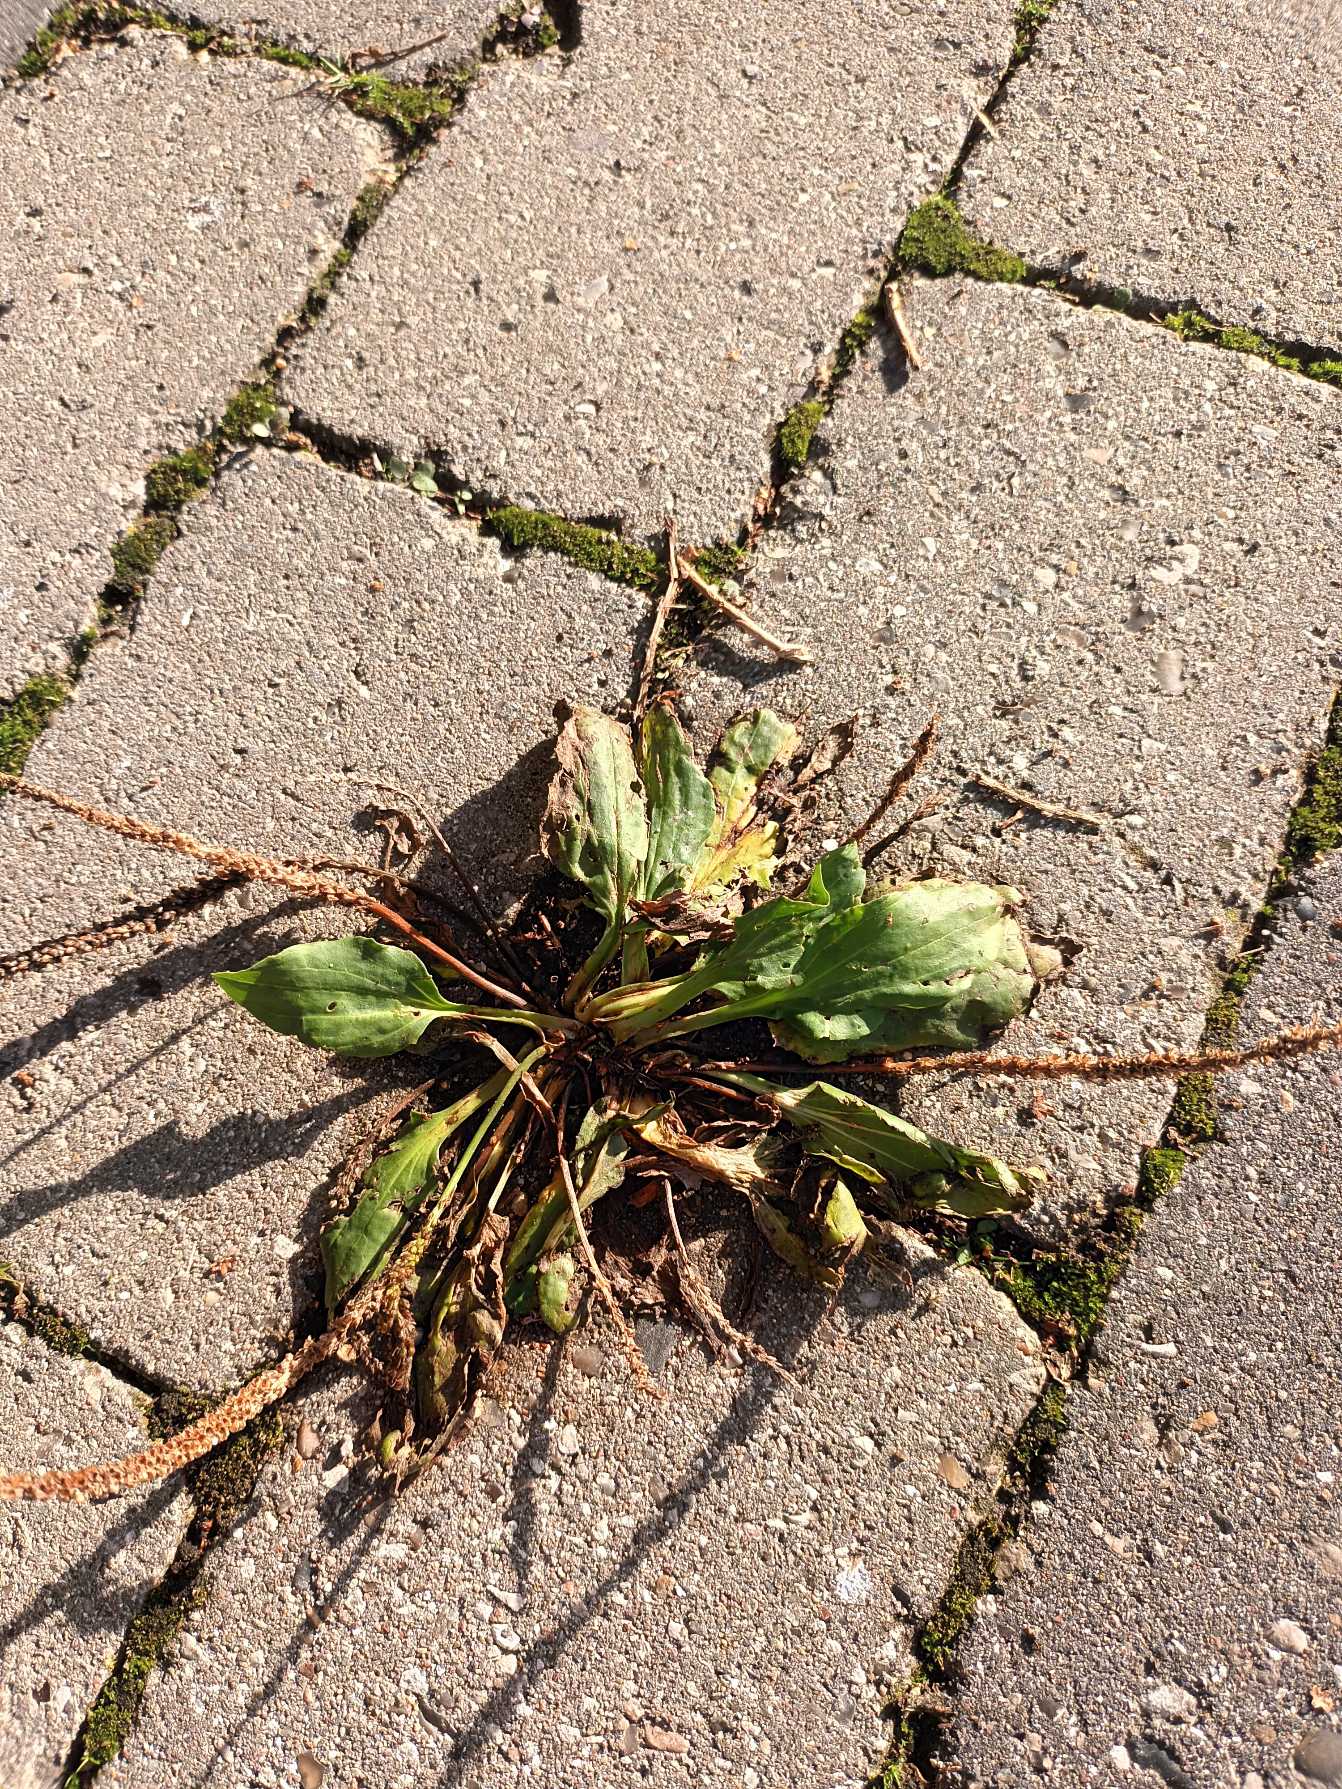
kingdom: Plantae
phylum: Tracheophyta
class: Magnoliopsida
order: Lamiales
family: Plantaginaceae
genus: Plantago
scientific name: Plantago major
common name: Glat vejbred
